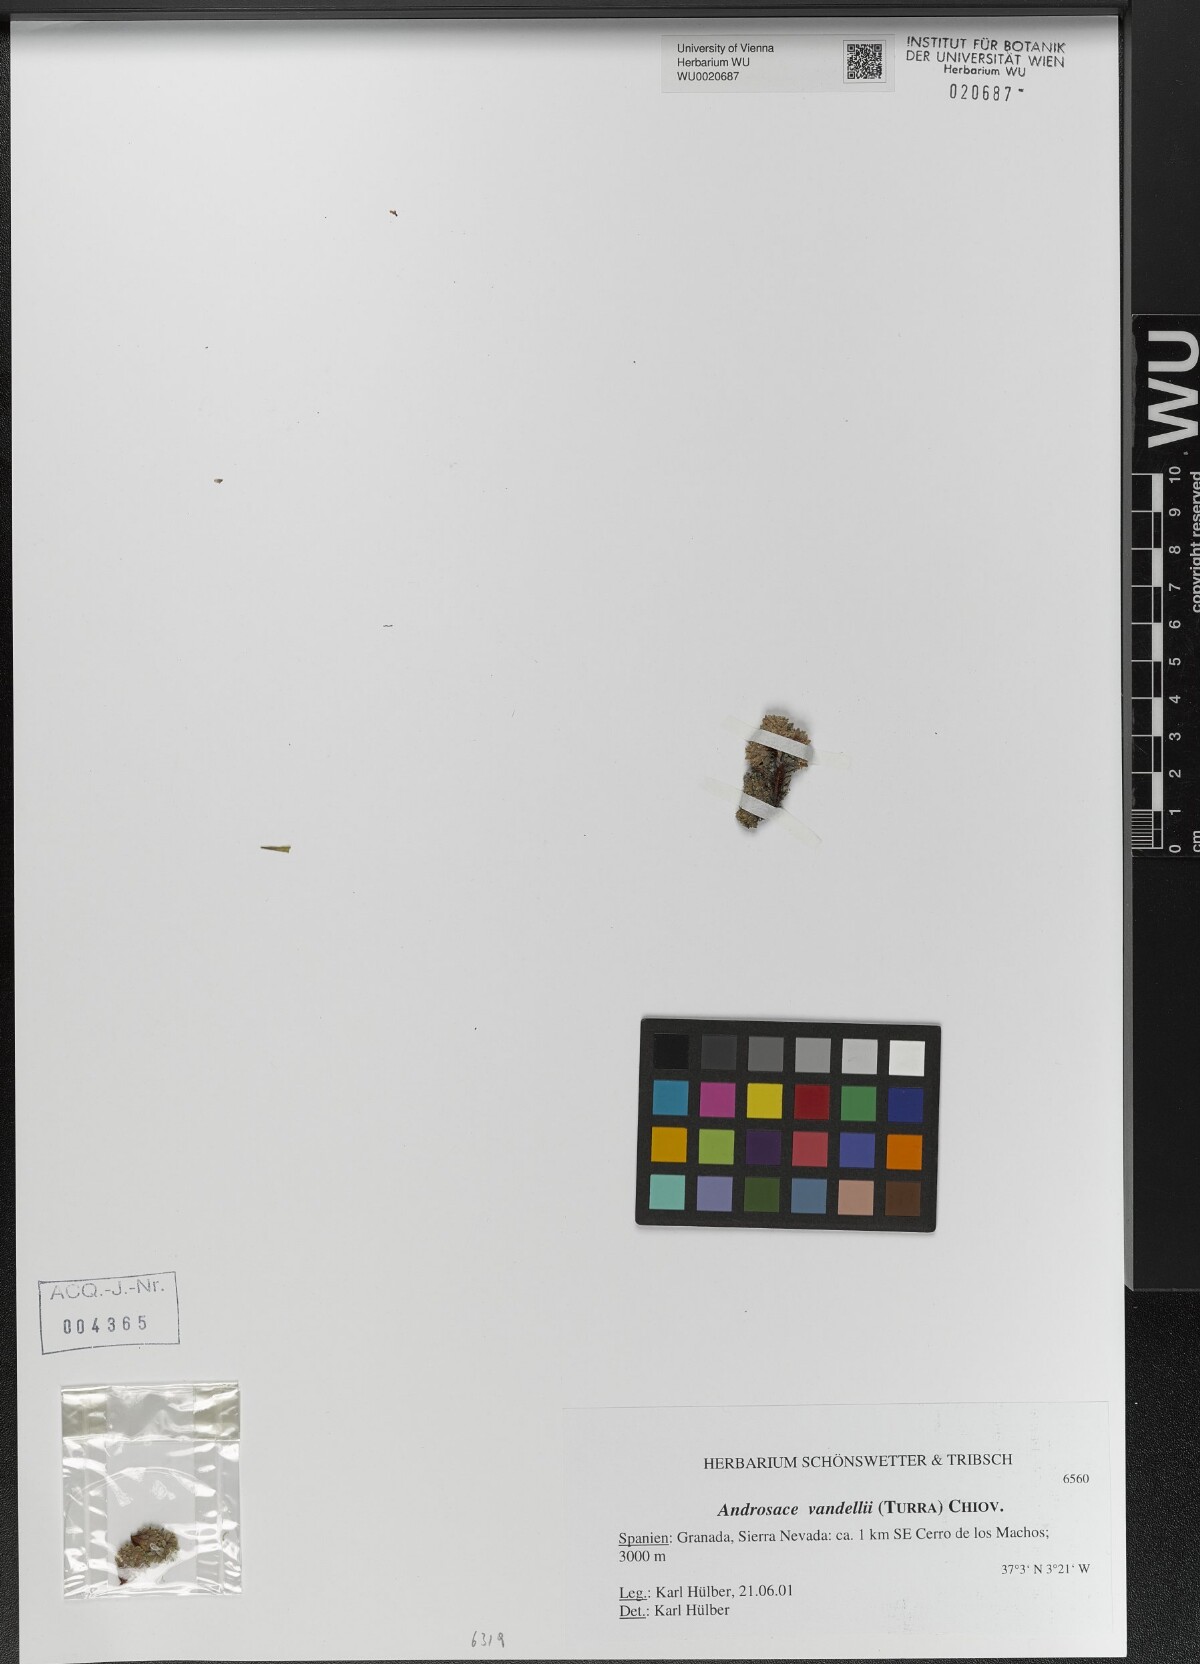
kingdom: Plantae
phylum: Tracheophyta
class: Magnoliopsida
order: Ericales
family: Primulaceae
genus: Androsace
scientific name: Androsace alpina
